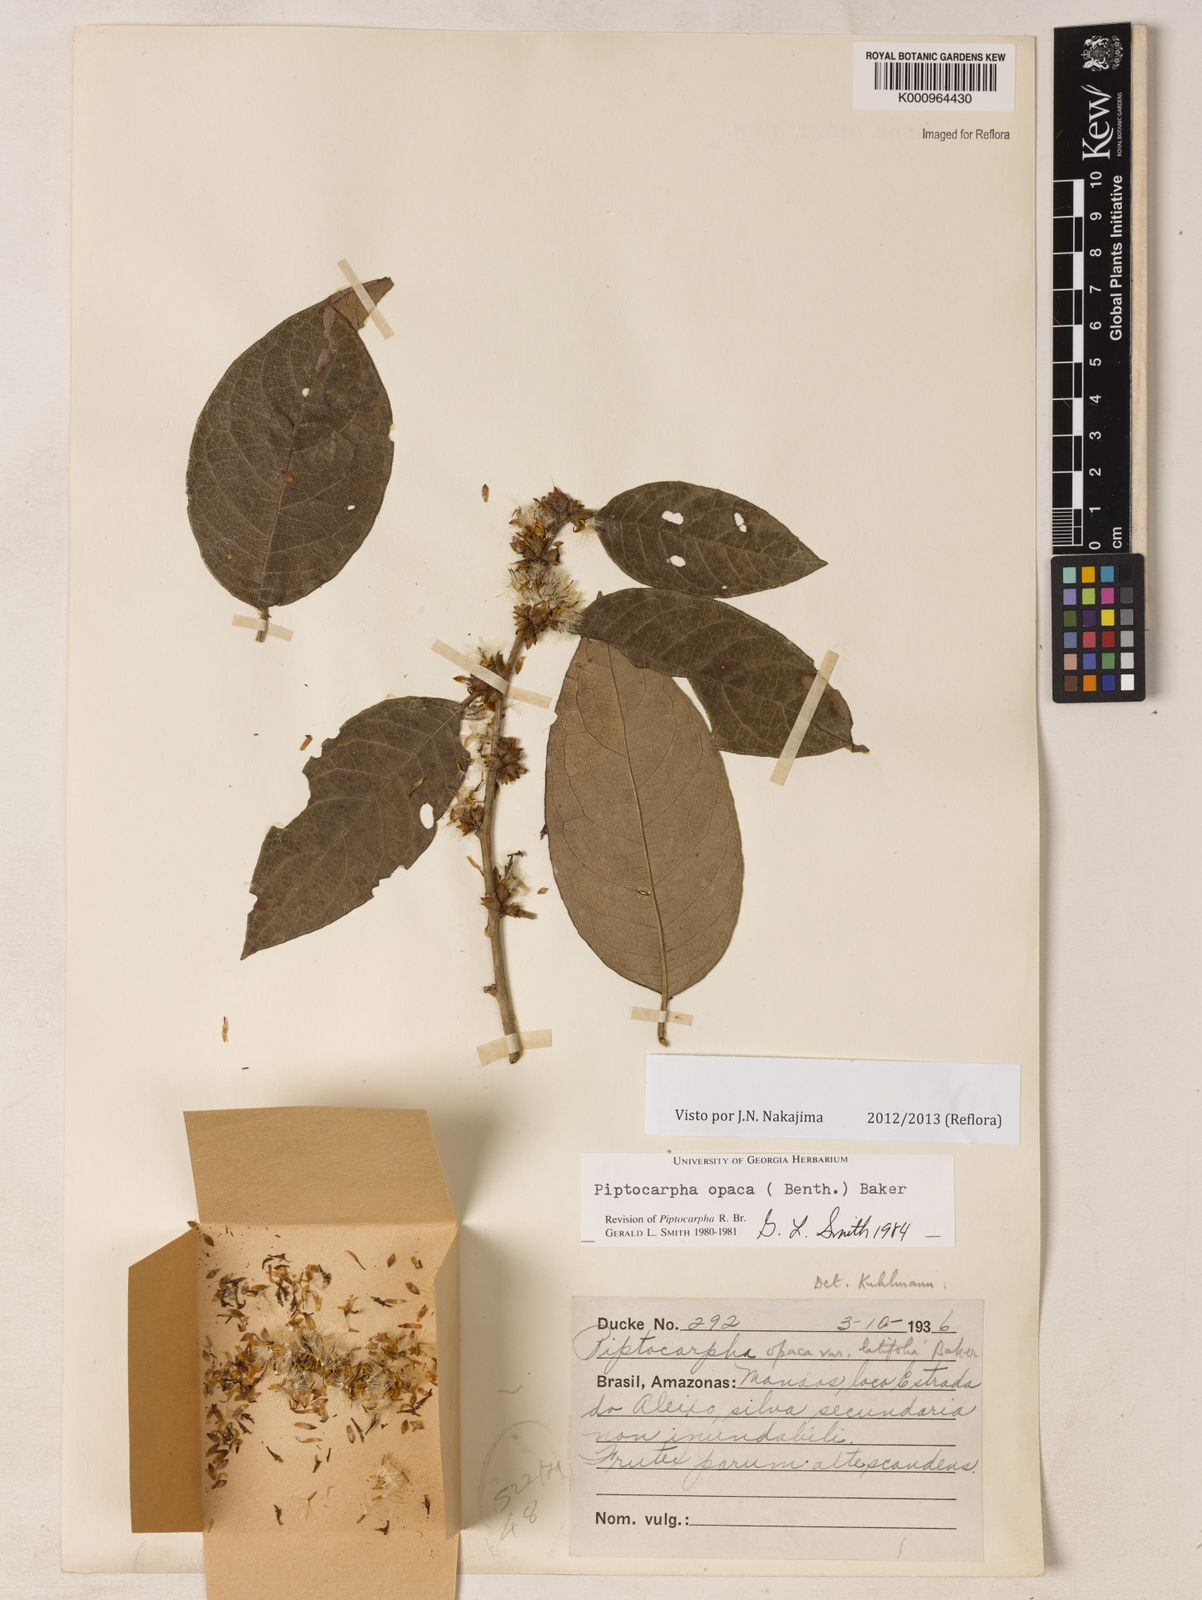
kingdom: Plantae
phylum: Tracheophyta
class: Magnoliopsida
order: Asterales
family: Asteraceae
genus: Piptocarpha
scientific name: Piptocarpha opaca
